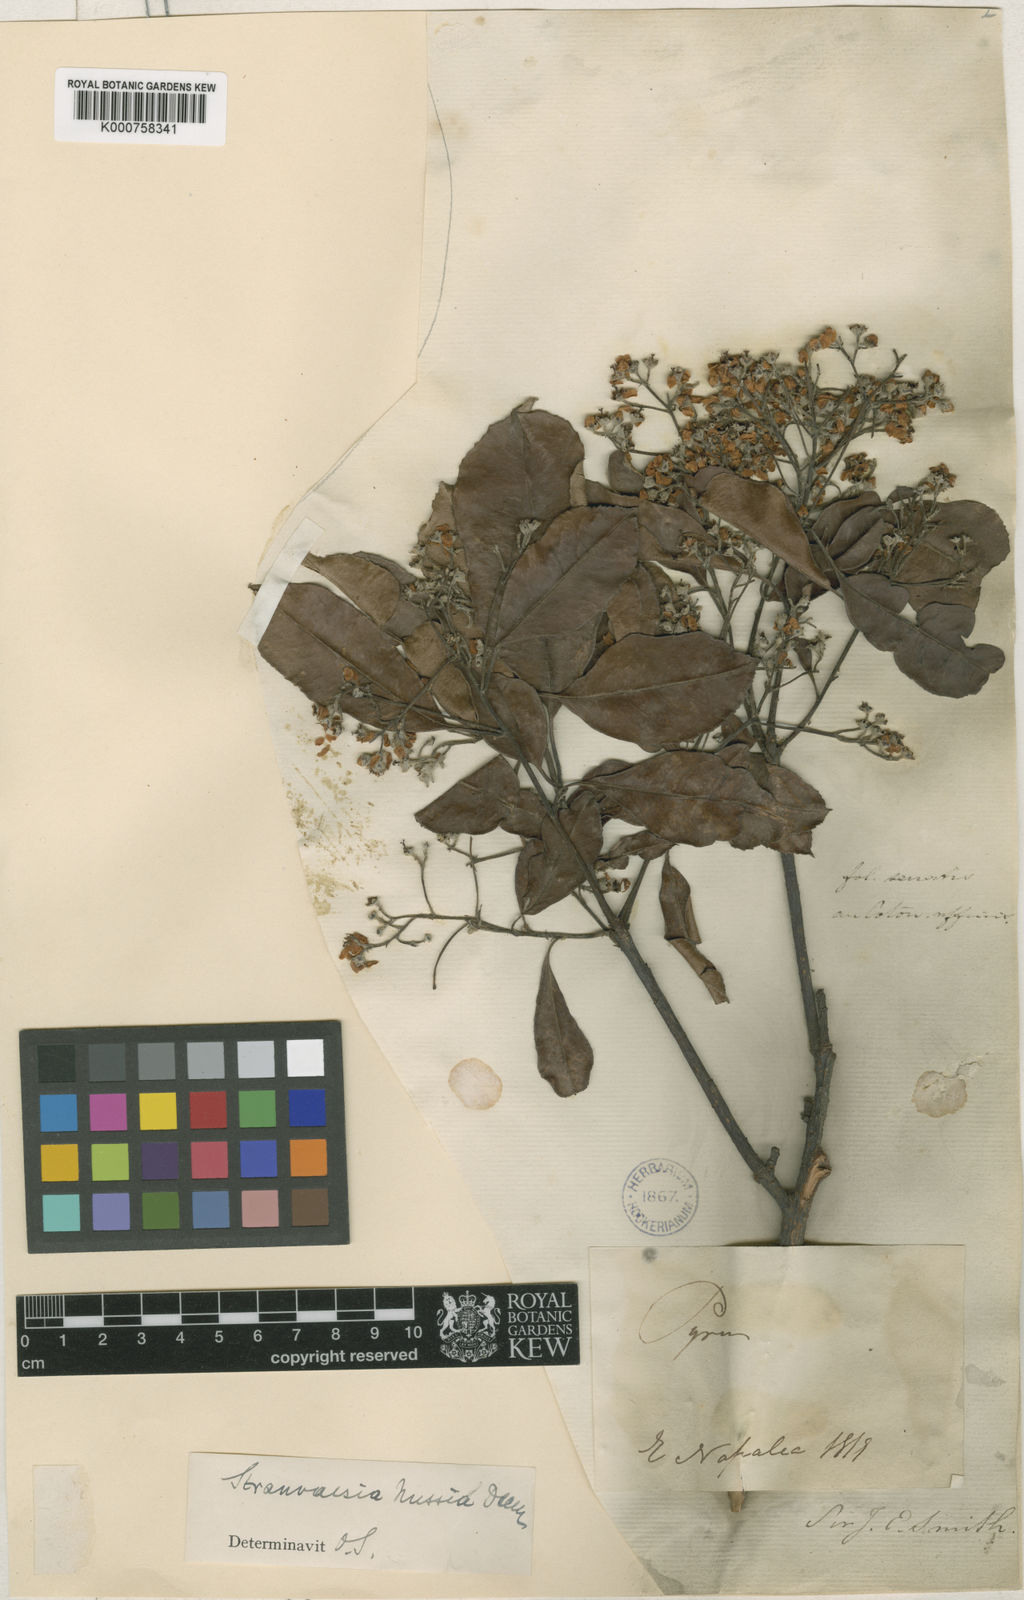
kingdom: Plantae
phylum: Tracheophyta
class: Magnoliopsida
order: Rosales
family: Rosaceae
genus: Stranvaesia
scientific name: Stranvaesia nussia
